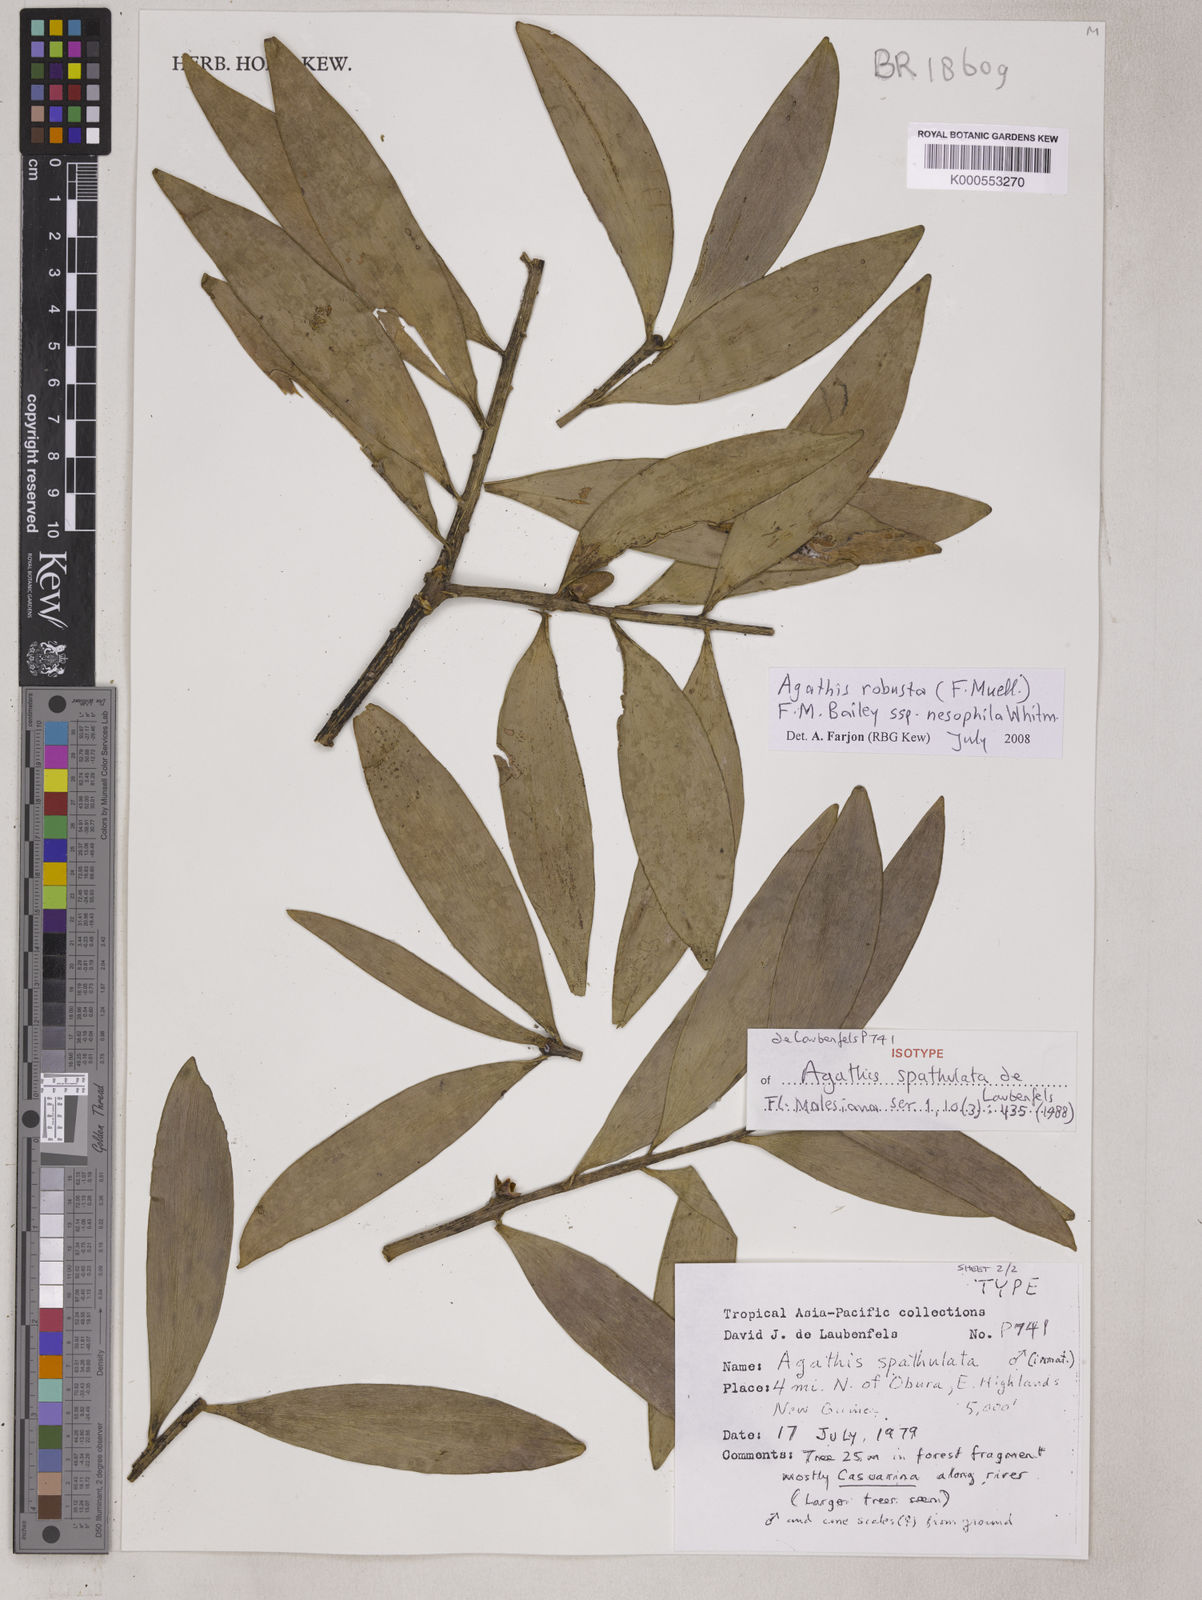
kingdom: Plantae
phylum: Tracheophyta
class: Pinopsida
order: Pinales
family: Araucariaceae
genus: Agathis
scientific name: Agathis robusta
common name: Australian-kauri
